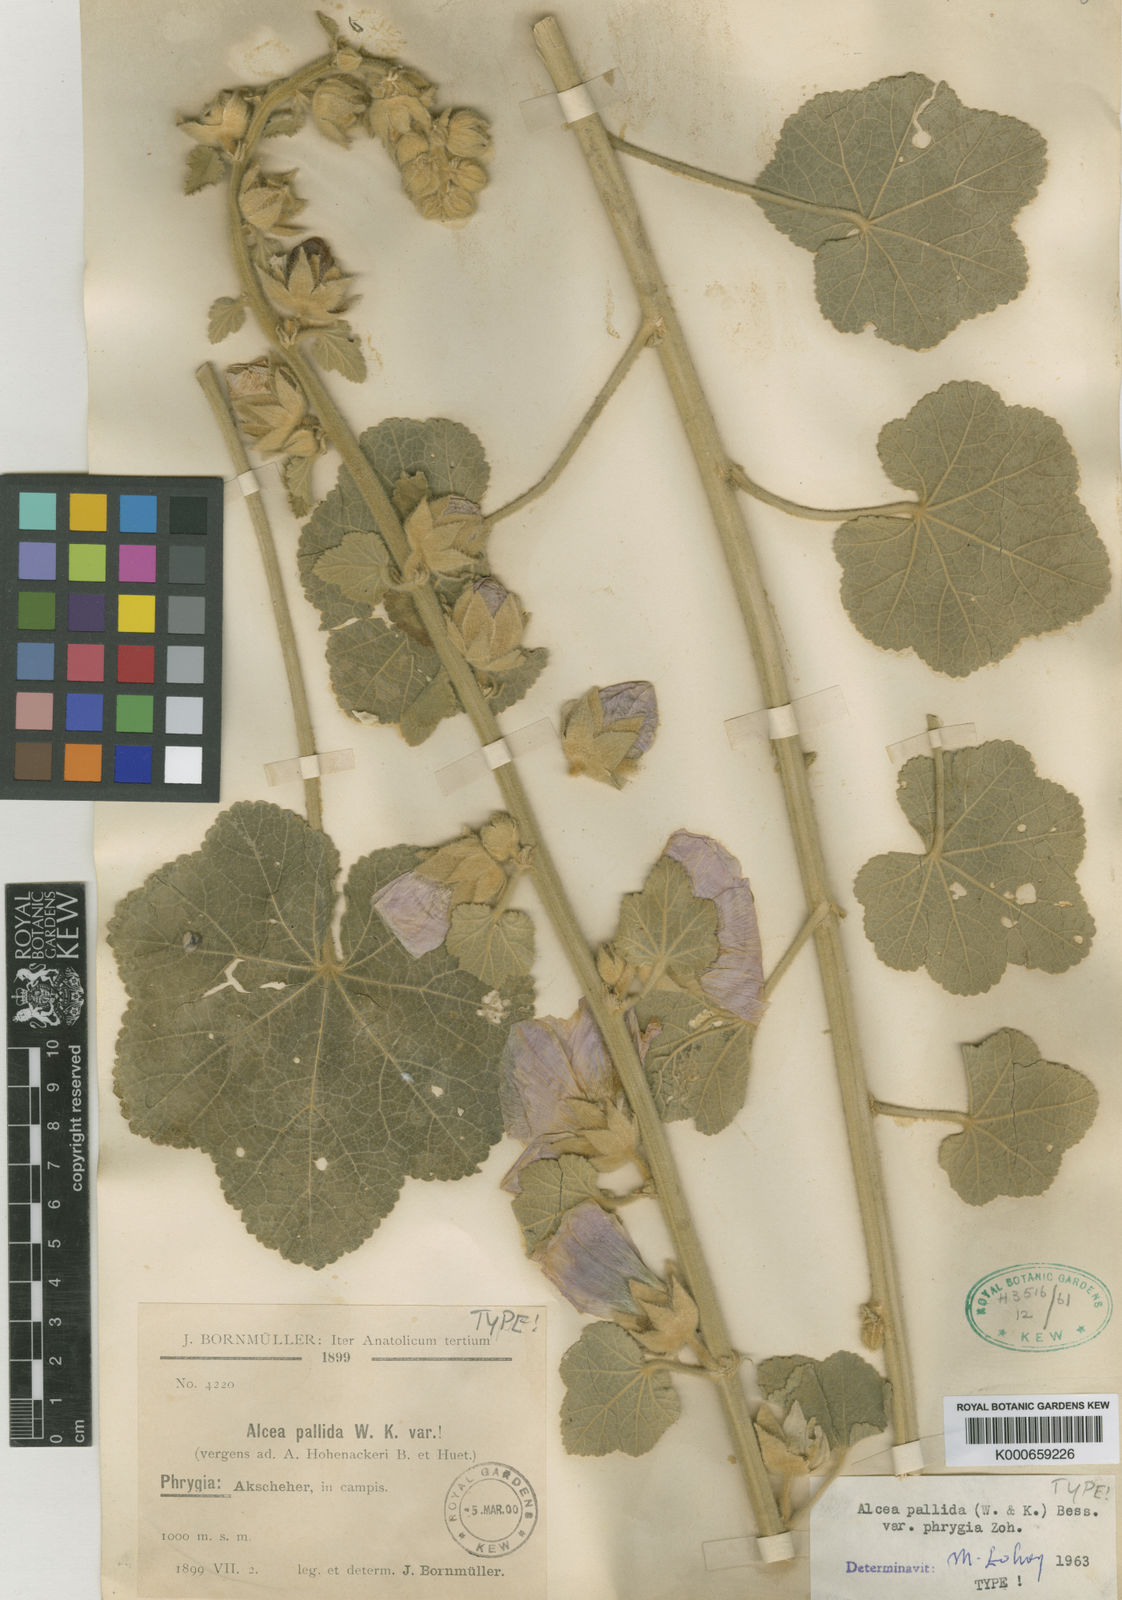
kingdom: Plantae
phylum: Tracheophyta
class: Magnoliopsida
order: Malvales
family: Malvaceae
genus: Alcea
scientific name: Alcea
